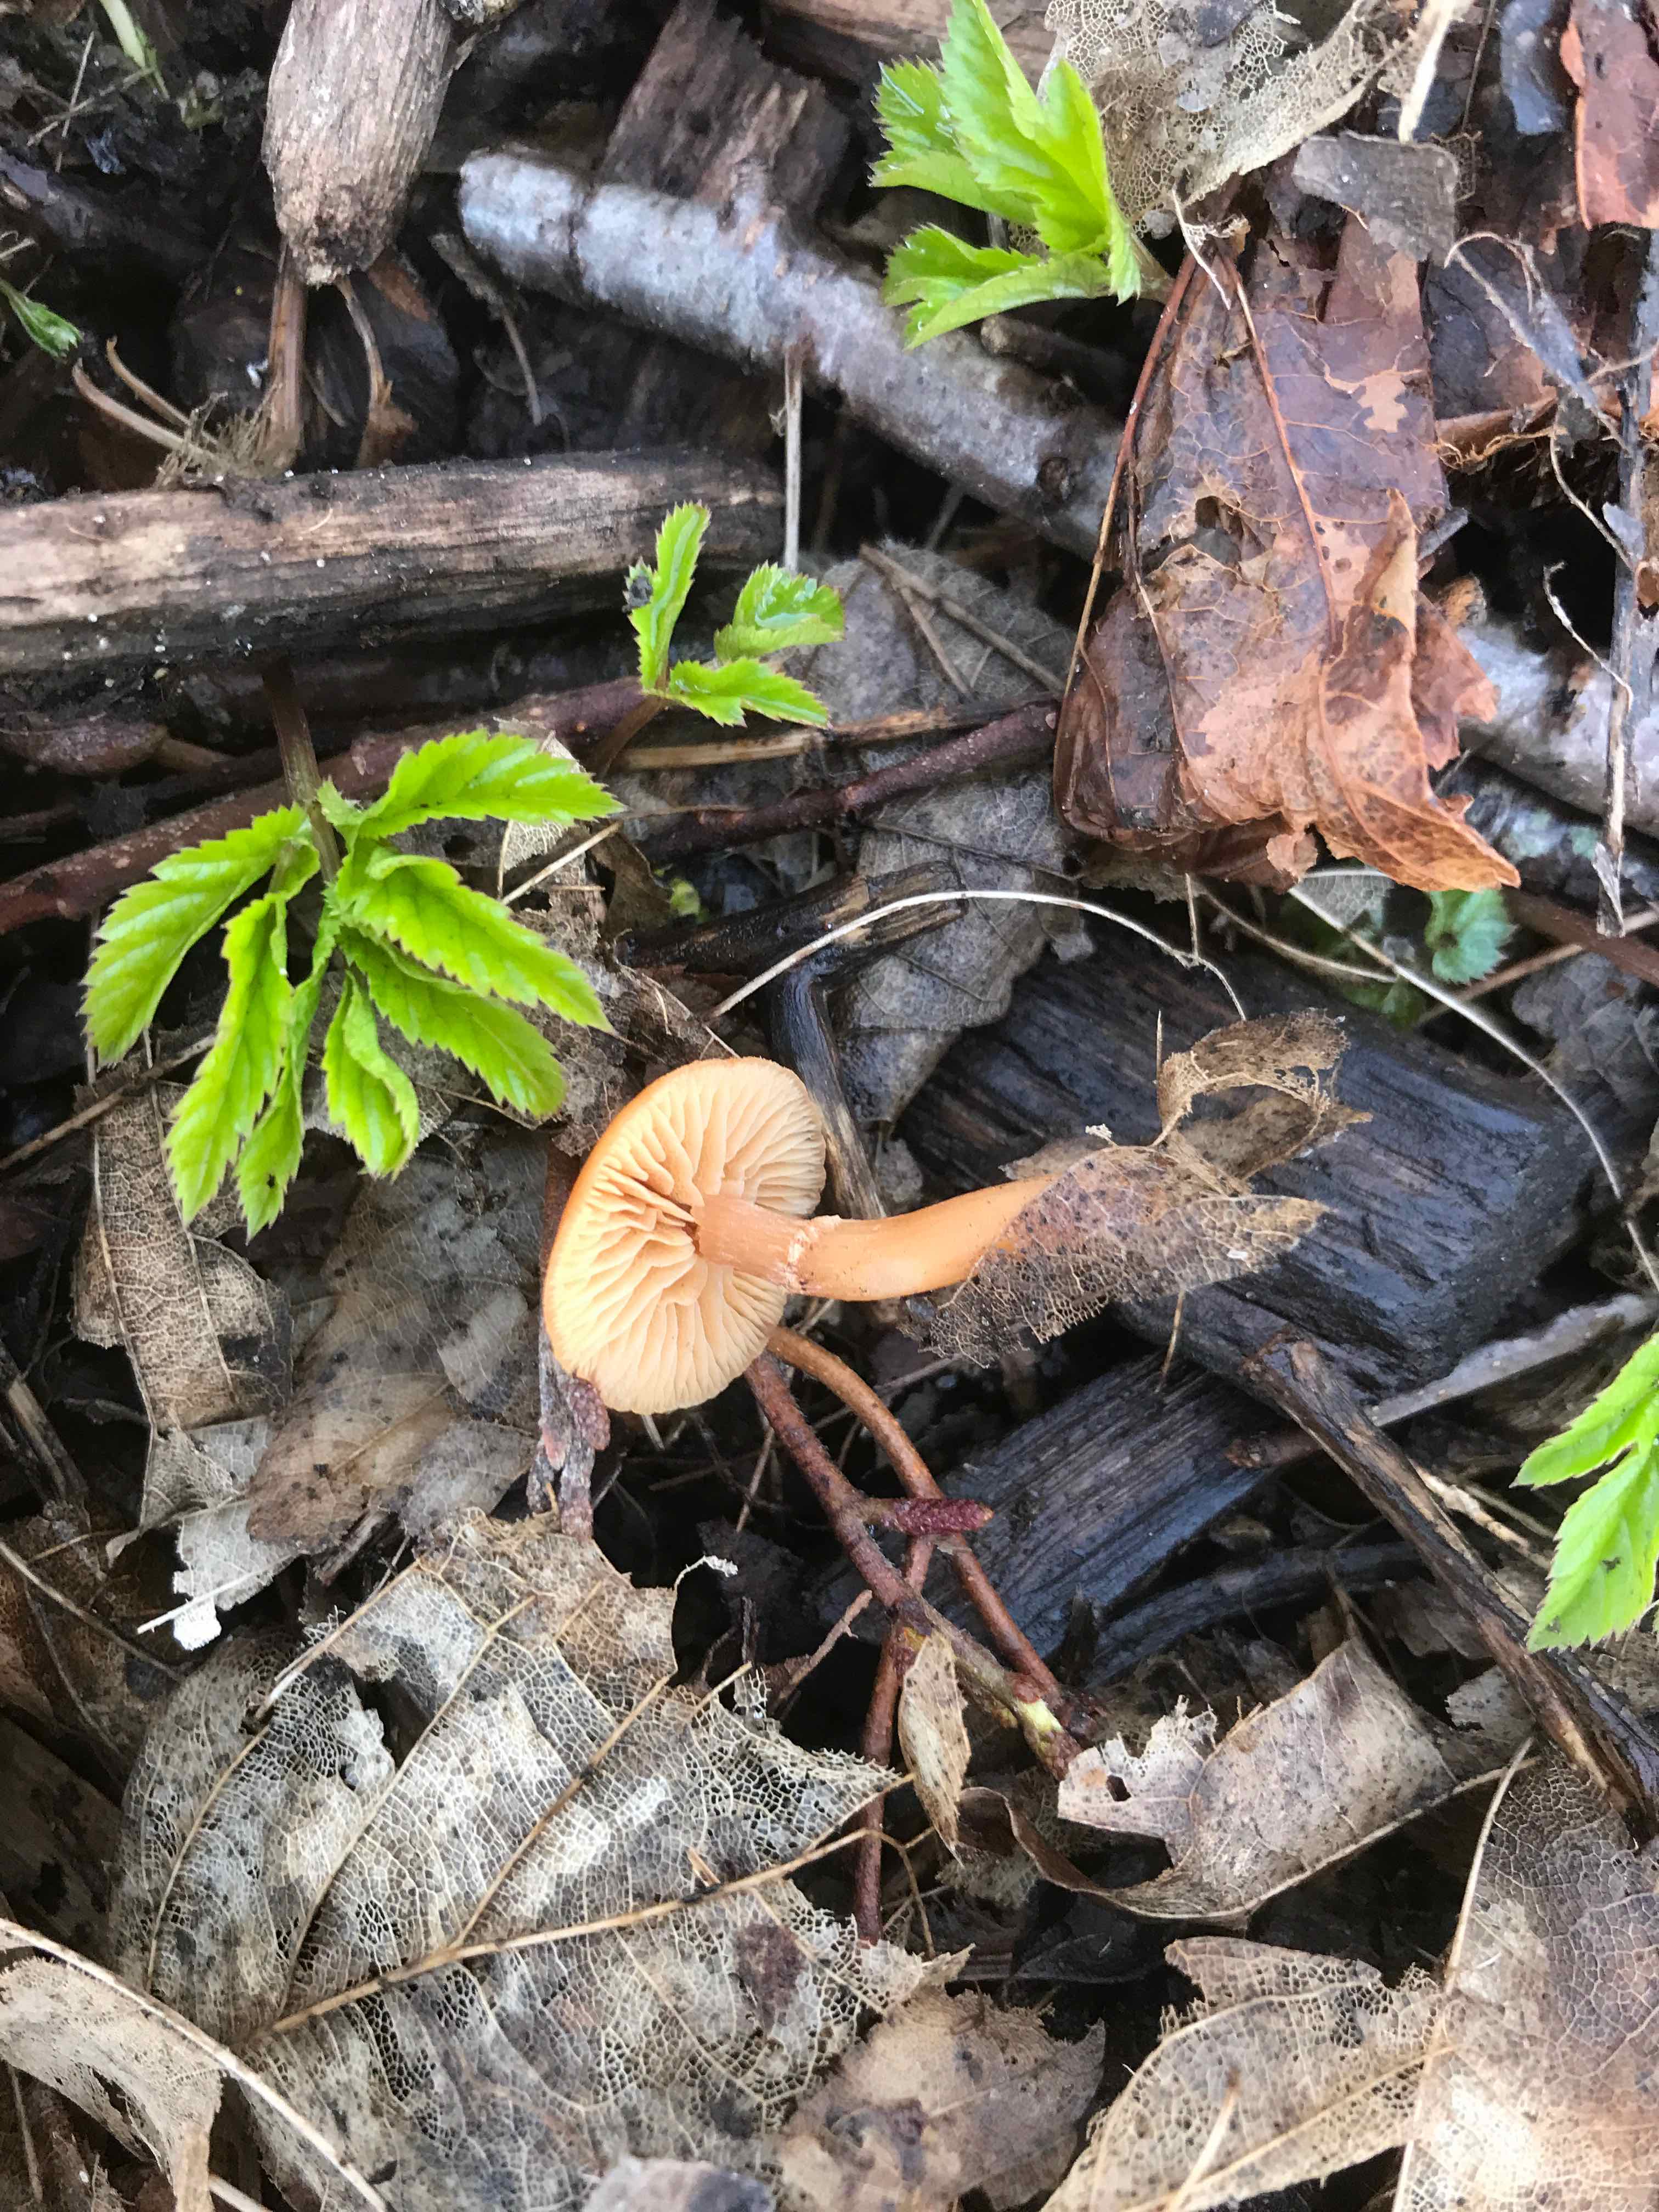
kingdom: Fungi
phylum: Basidiomycota
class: Agaricomycetes
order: Agaricales
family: Tubariaceae
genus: Tubaria
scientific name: Tubaria furfuracea
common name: kliddet fnughat
